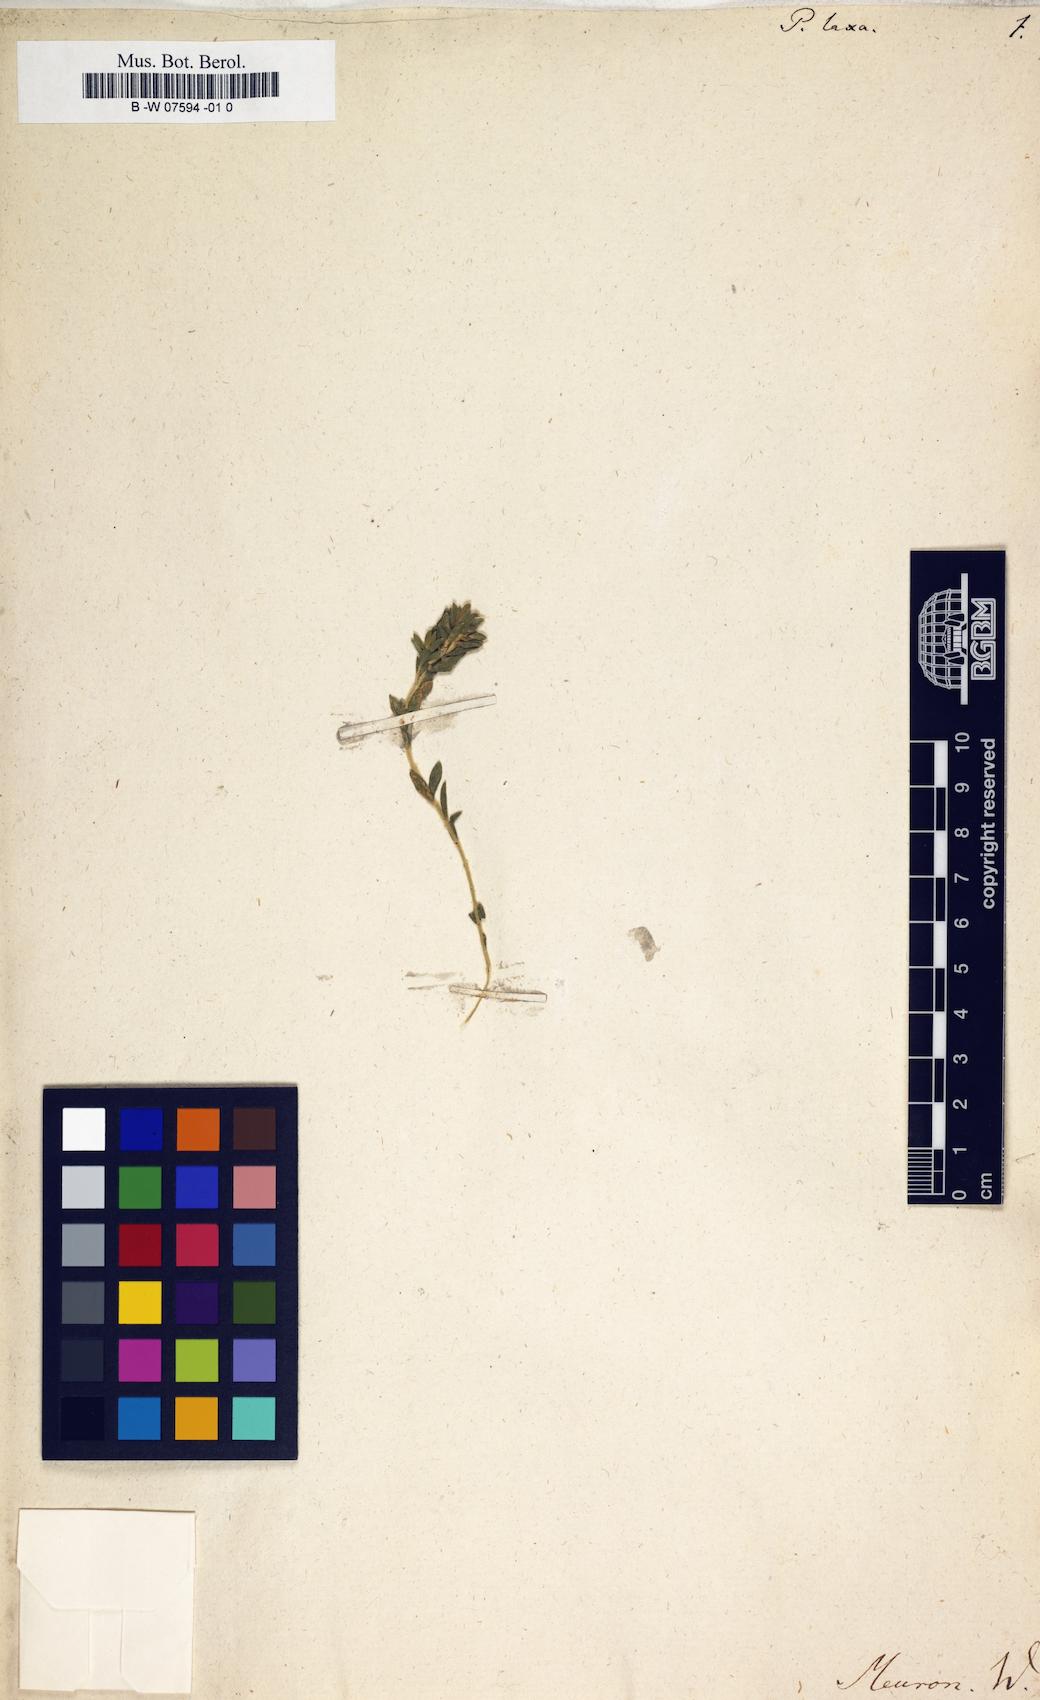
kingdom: Plantae
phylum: Tracheophyta
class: Magnoliopsida
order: Malvales
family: Thymelaeaceae
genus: Gnidia
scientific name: Gnidia laxa
